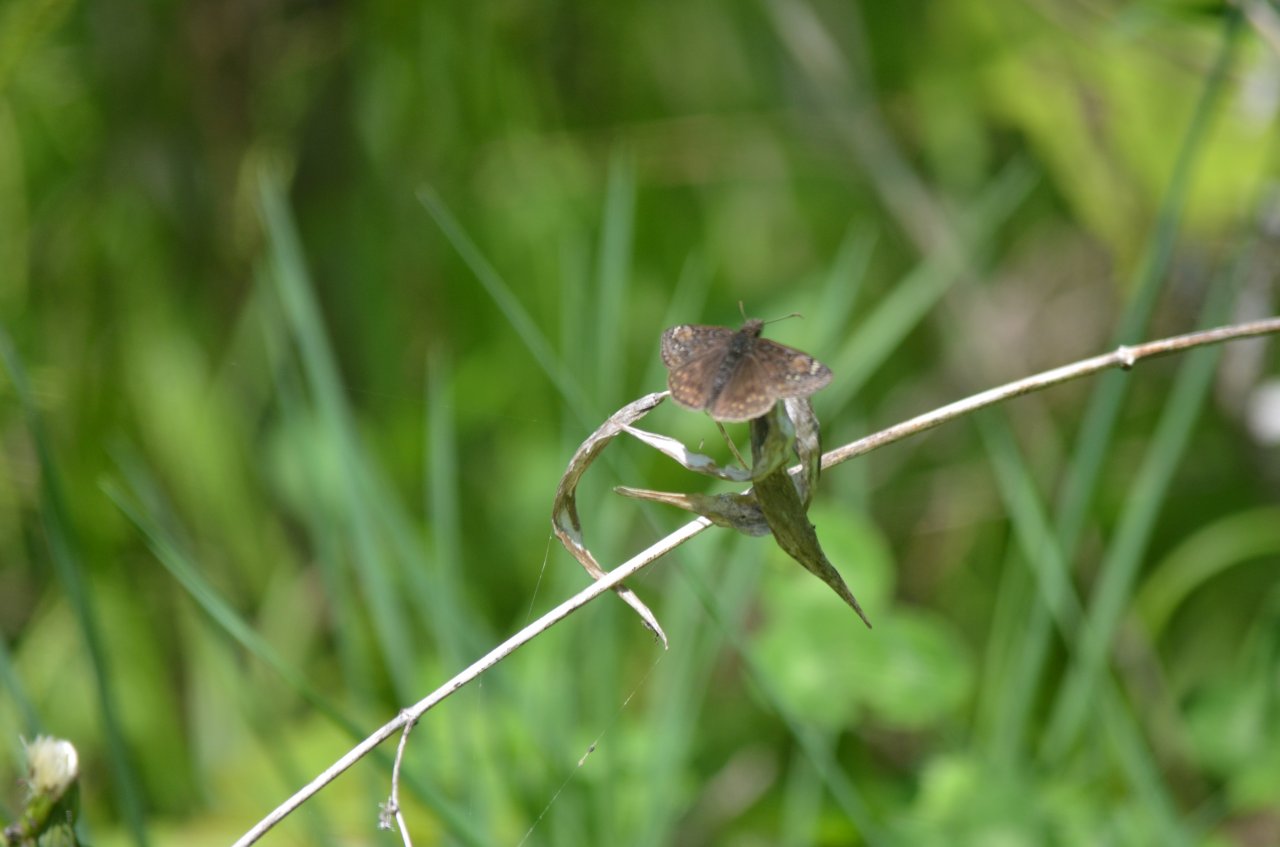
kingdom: Animalia
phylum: Arthropoda
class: Insecta
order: Lepidoptera
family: Hesperiidae
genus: Gesta
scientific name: Gesta
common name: Juvenal's Duskywing
